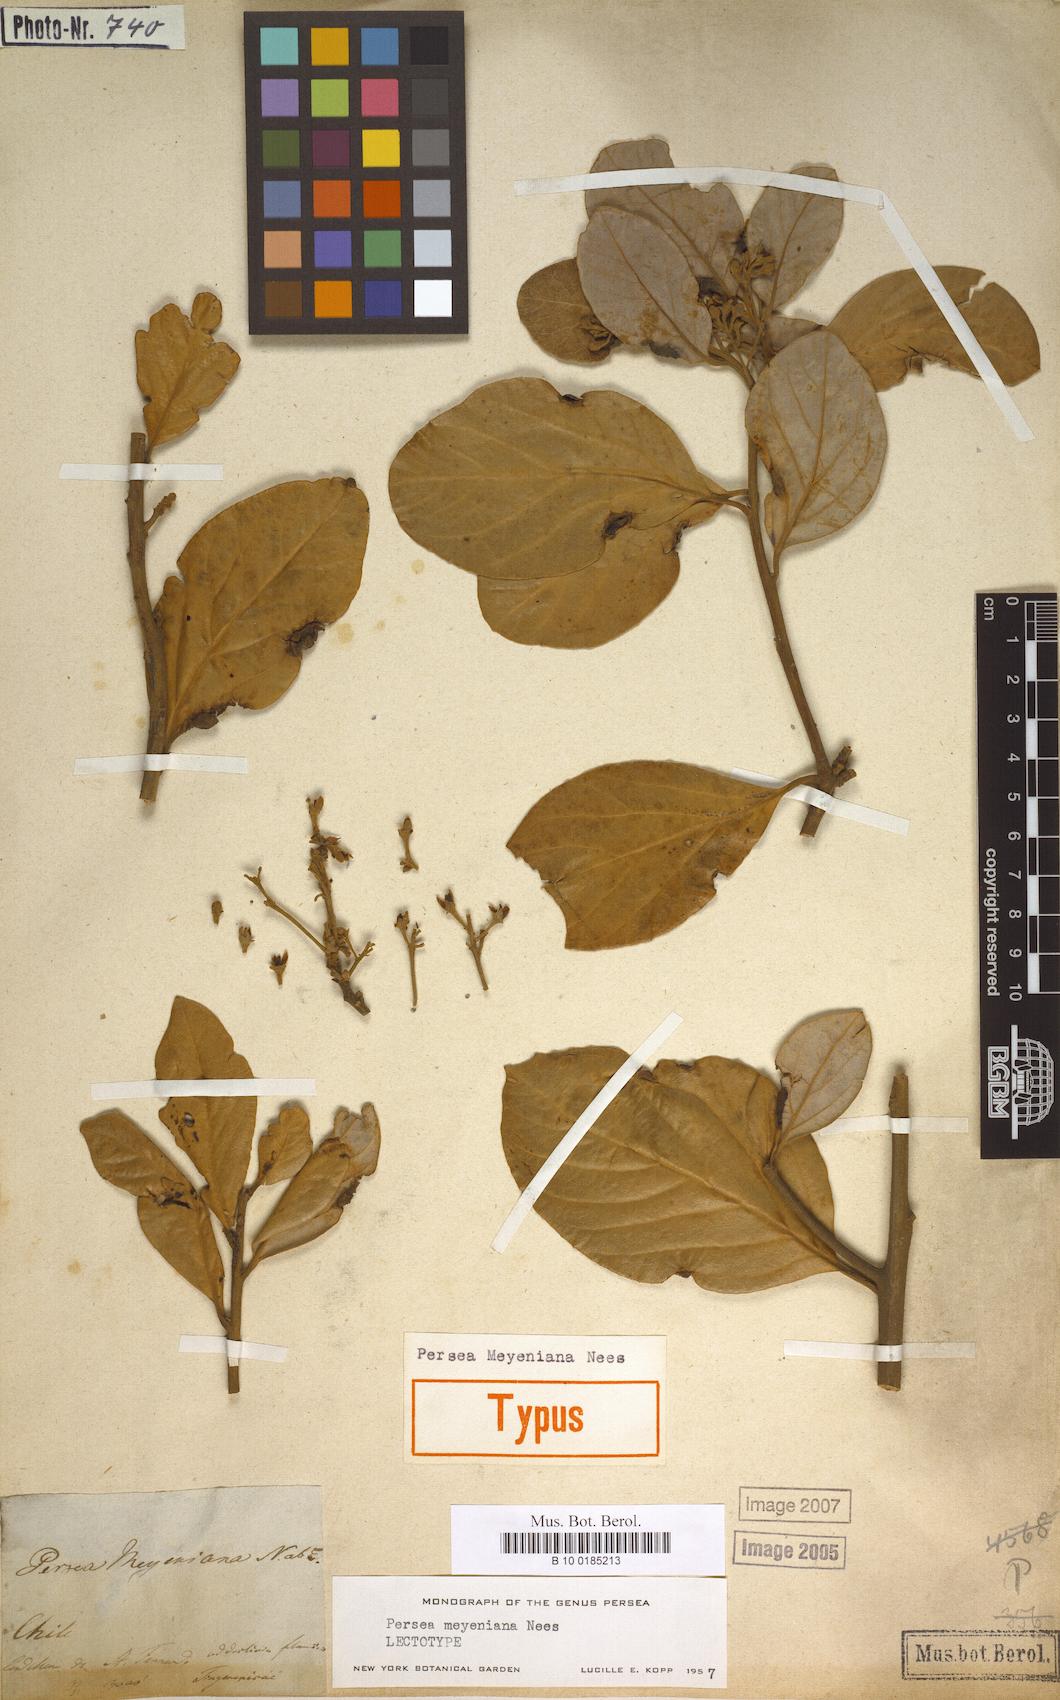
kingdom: Plantae
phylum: Tracheophyta
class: Magnoliopsida
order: Laurales
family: Lauraceae
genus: Persea
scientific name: Persea lingue
